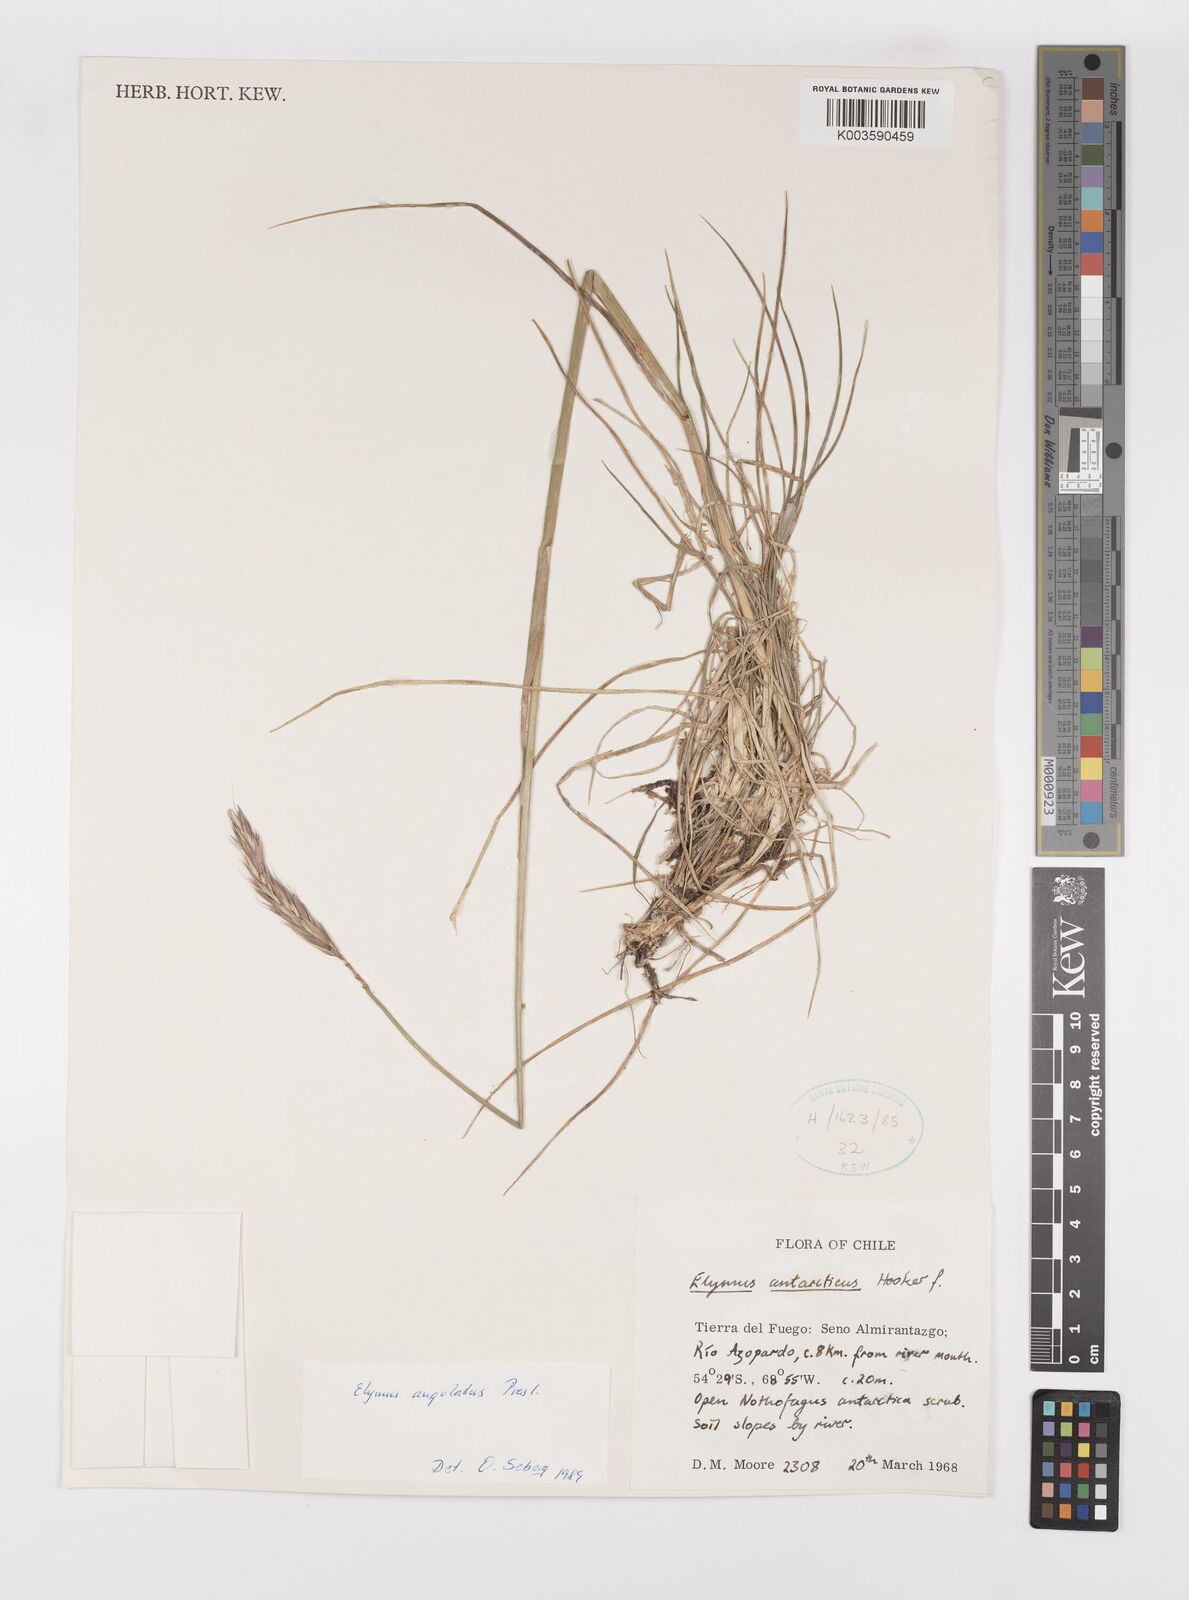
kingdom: Plantae
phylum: Tracheophyta
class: Liliopsida
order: Poales
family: Poaceae
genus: Elymus
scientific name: Elymus angulatus
